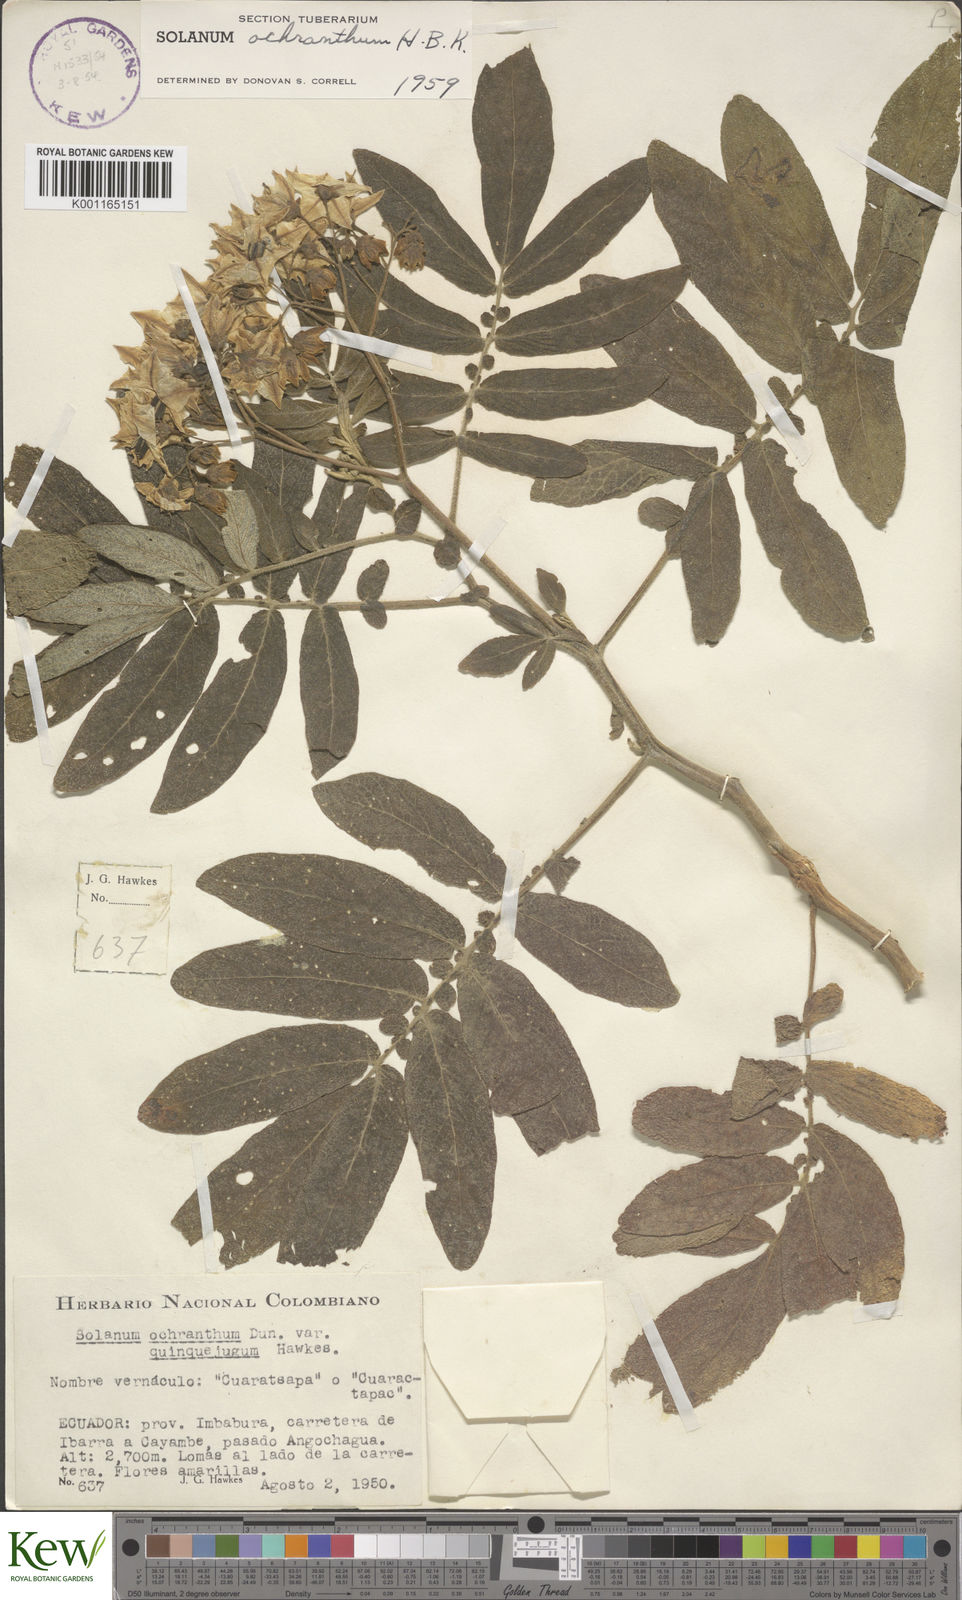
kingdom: Plantae
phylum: Tracheophyta
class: Magnoliopsida
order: Solanales
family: Solanaceae
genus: Solanum
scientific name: Solanum ochranthum
